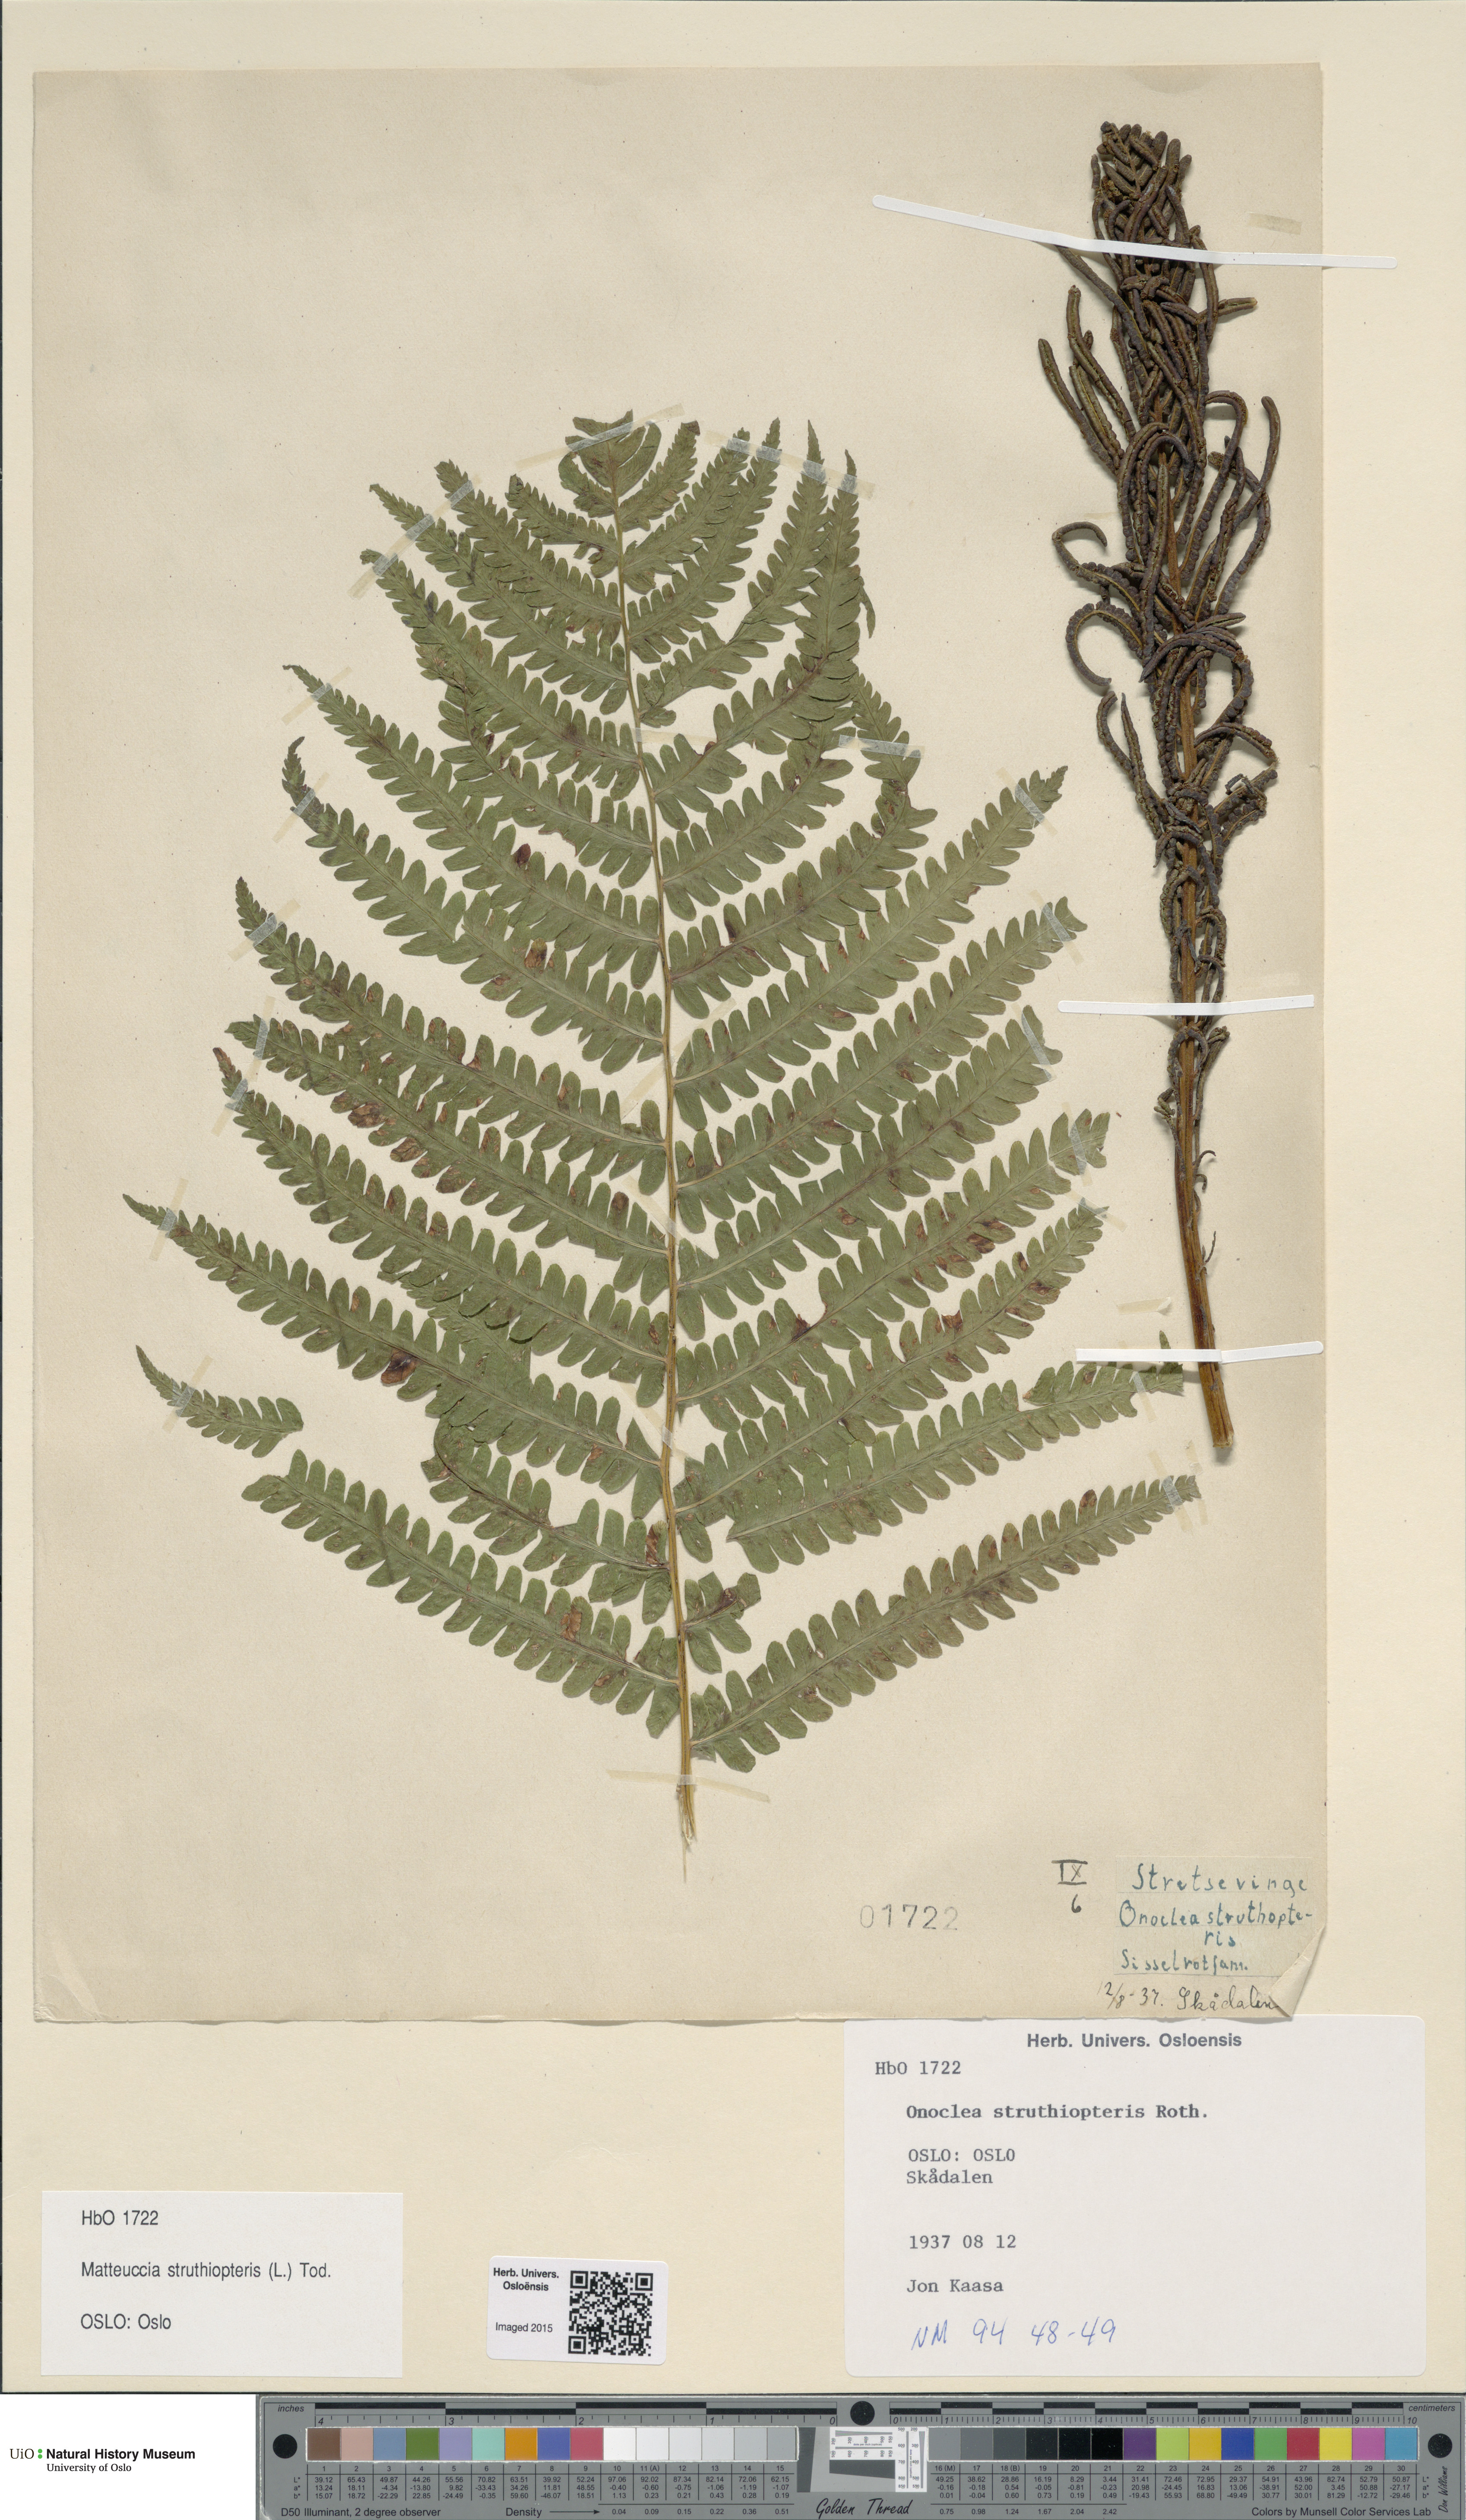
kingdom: Plantae
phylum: Tracheophyta
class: Polypodiopsida
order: Polypodiales
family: Onocleaceae
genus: Matteuccia
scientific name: Matteuccia struthiopteris
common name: Ostrich fern
